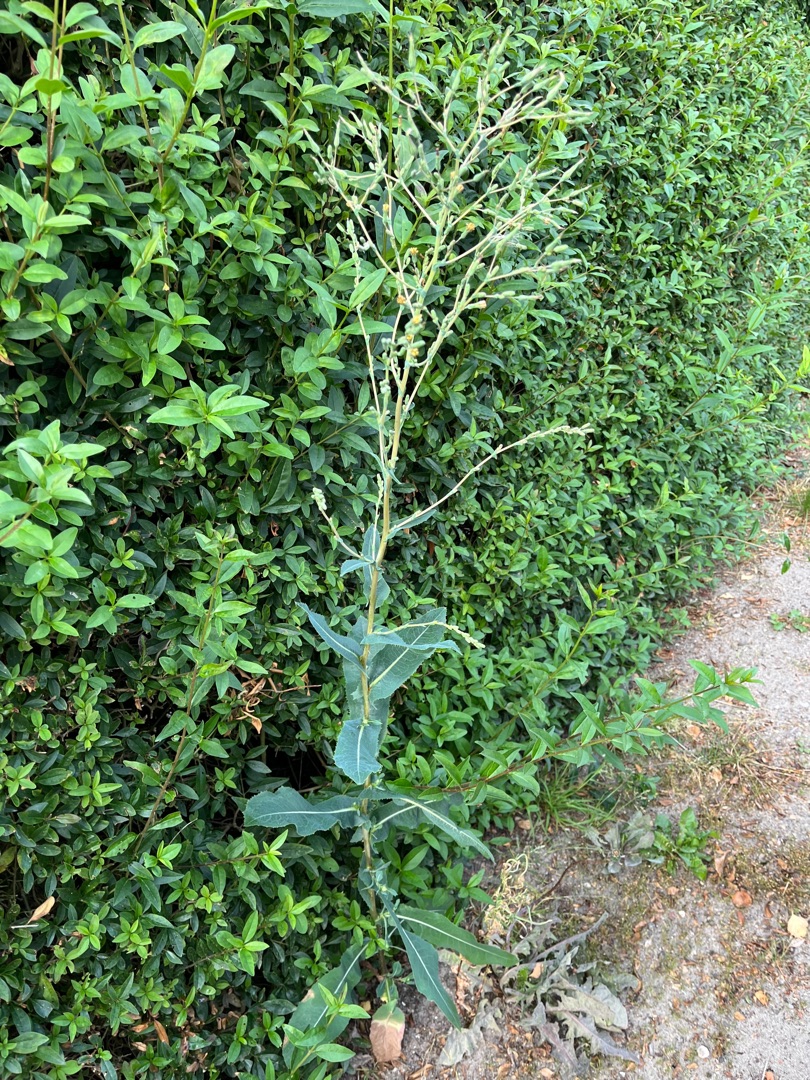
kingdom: Plantae
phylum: Tracheophyta
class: Magnoliopsida
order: Asterales
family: Asteraceae
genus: Lactuca
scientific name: Lactuca serriola
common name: Tornet salat
